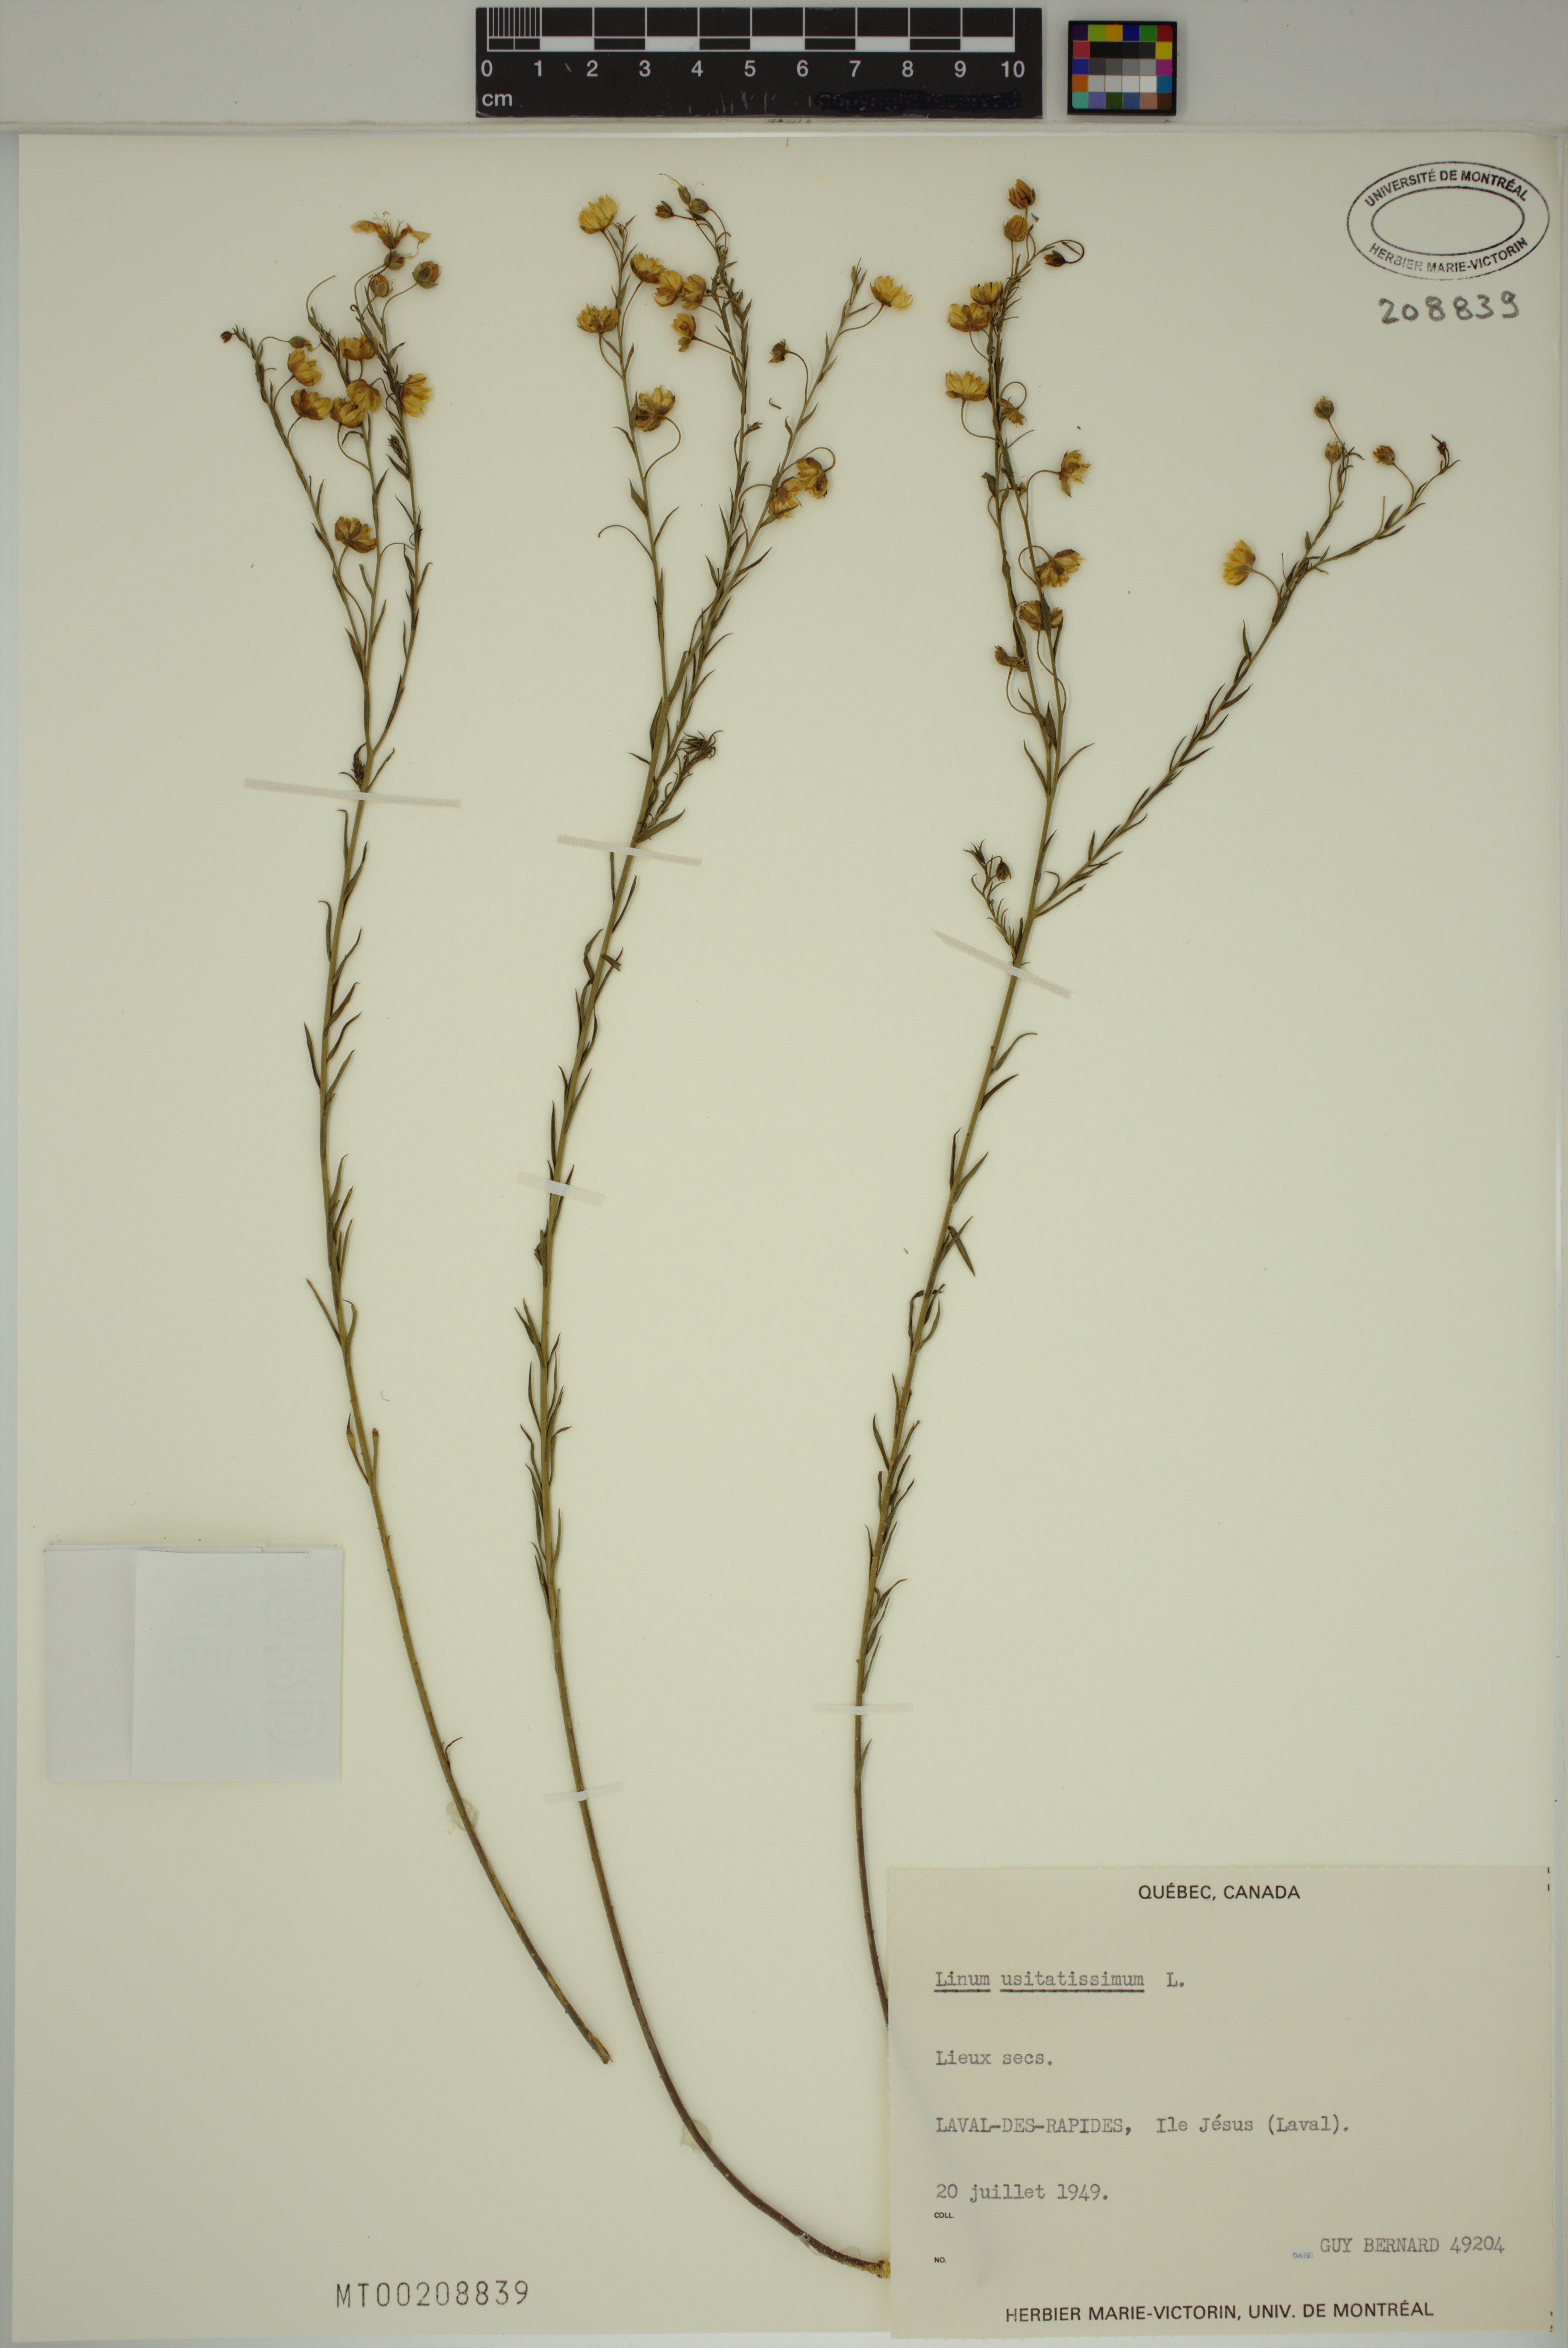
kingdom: Plantae
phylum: Tracheophyta
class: Magnoliopsida
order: Malpighiales
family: Linaceae
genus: Linum
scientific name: Linum usitatissimum
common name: Flax
